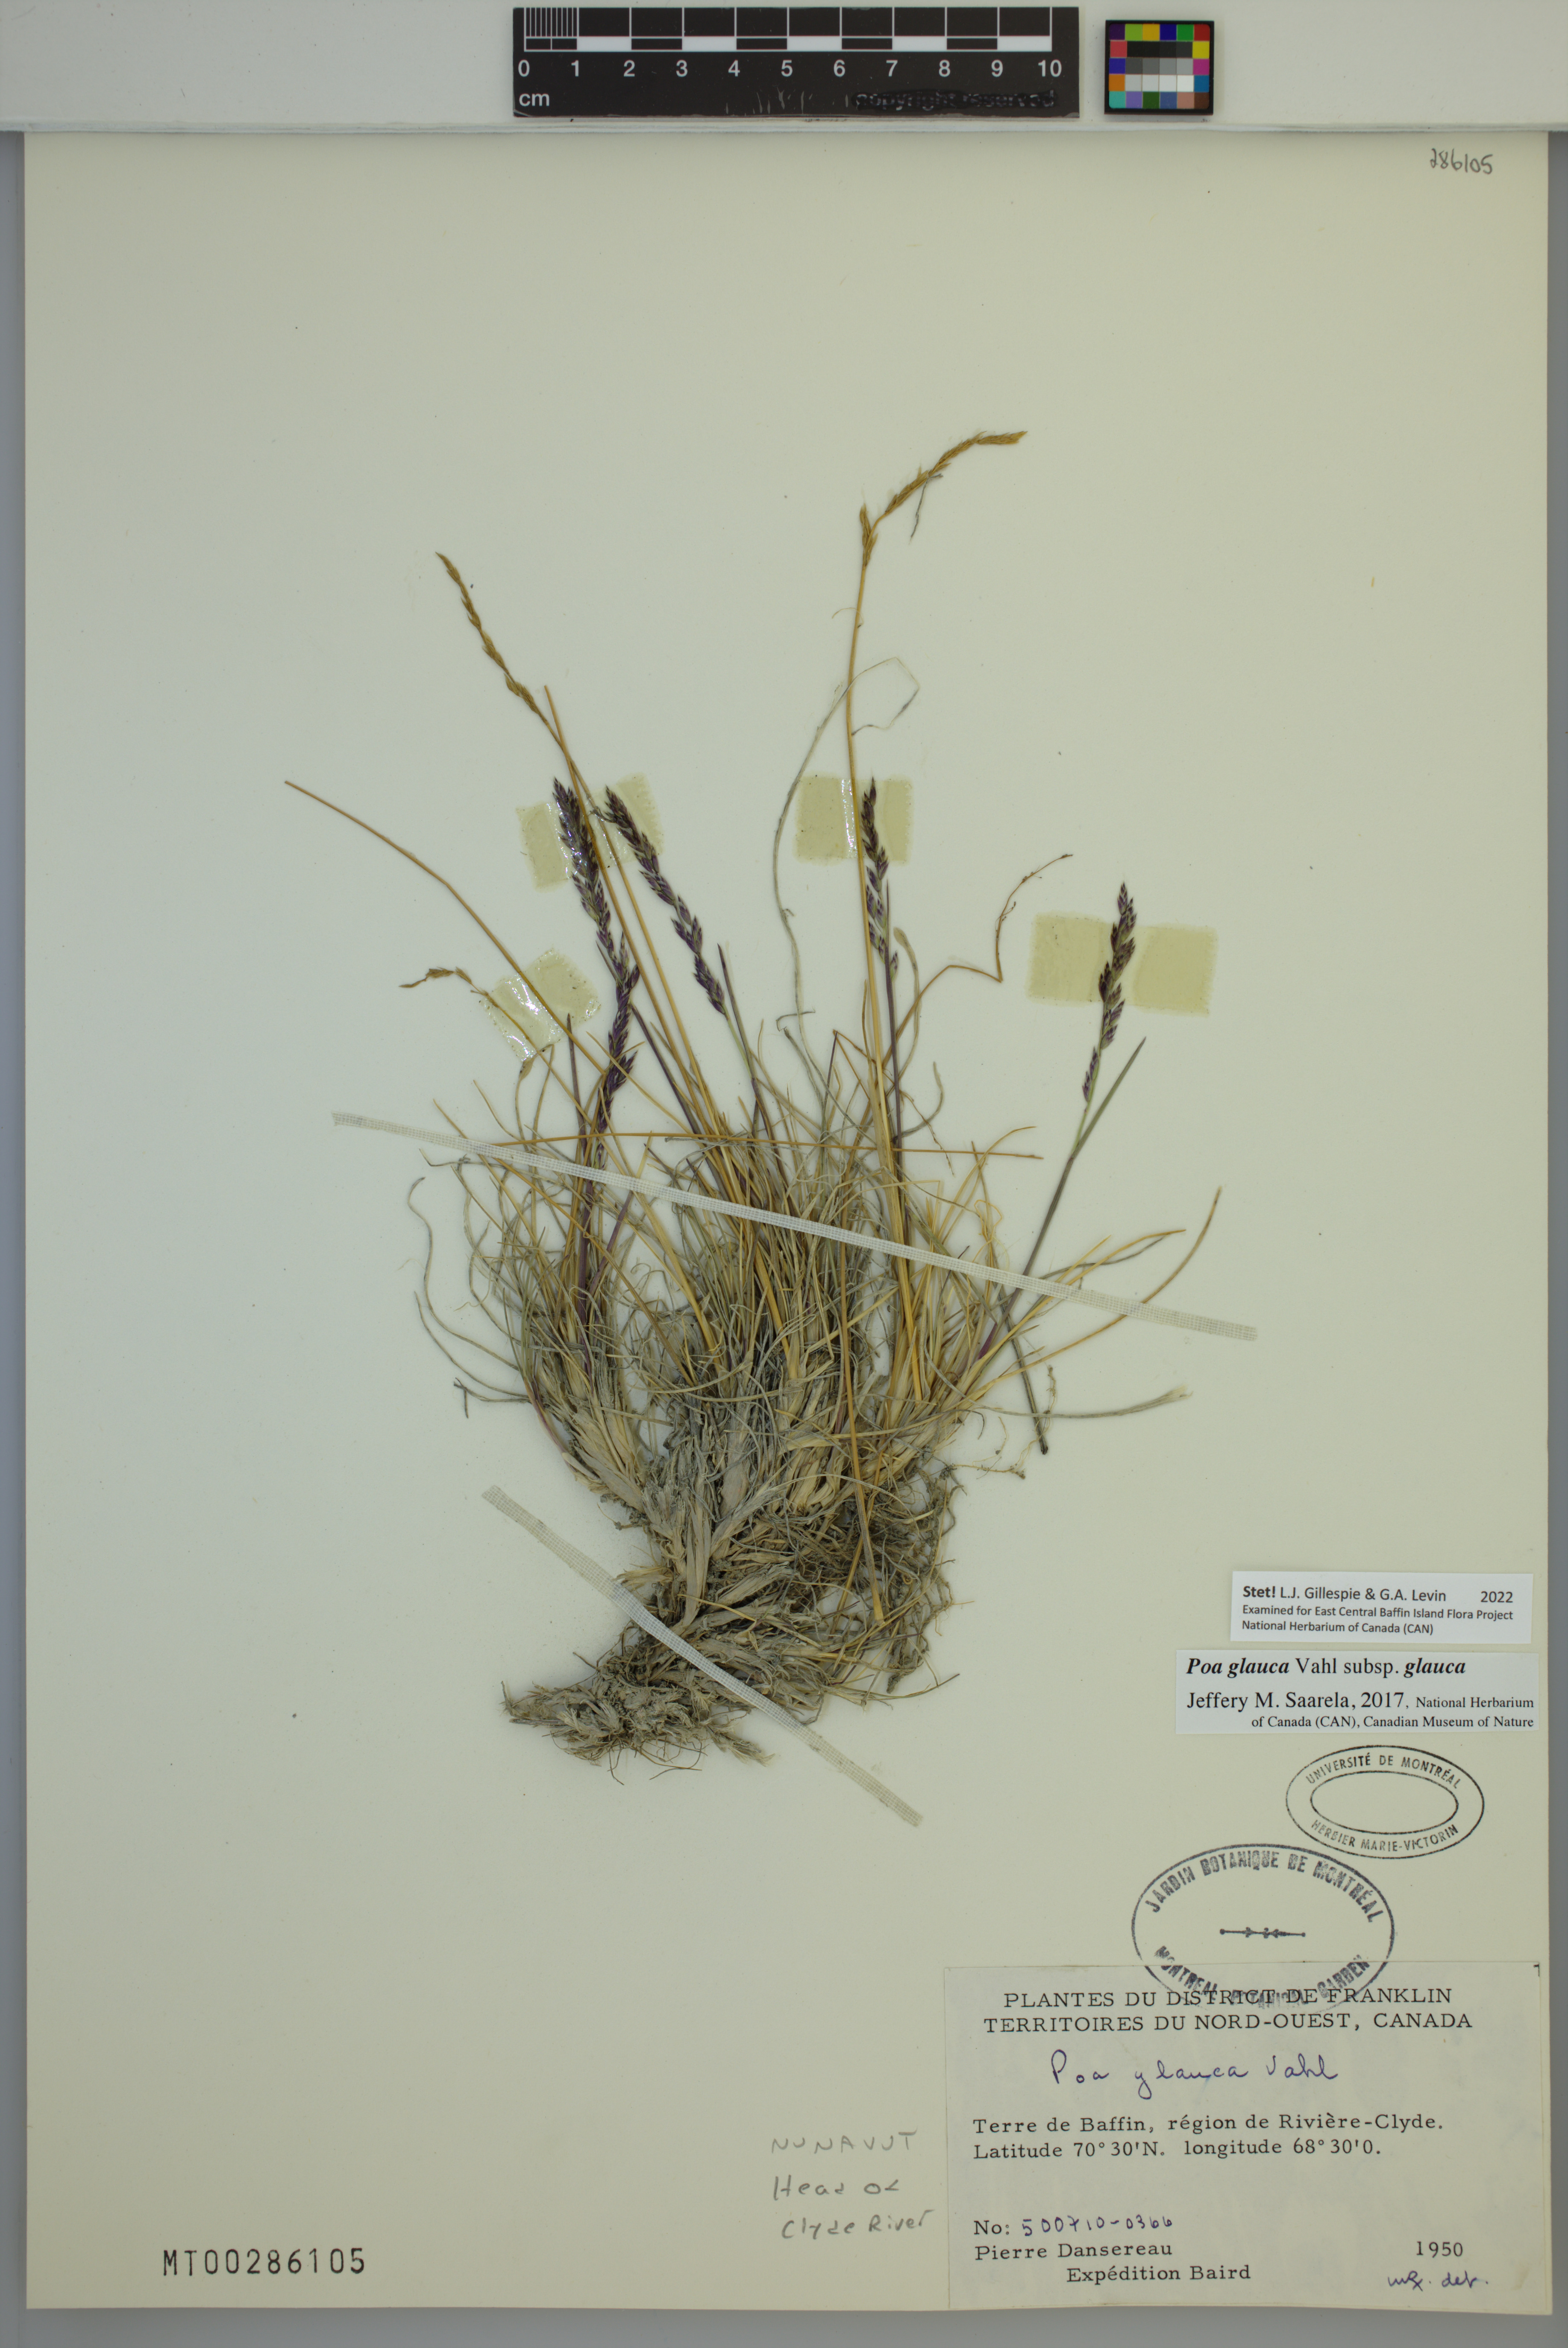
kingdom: Plantae
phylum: Tracheophyta
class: Liliopsida
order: Poales
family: Poaceae
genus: Poa
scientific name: Poa glauca
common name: Glaucous bluegrass
